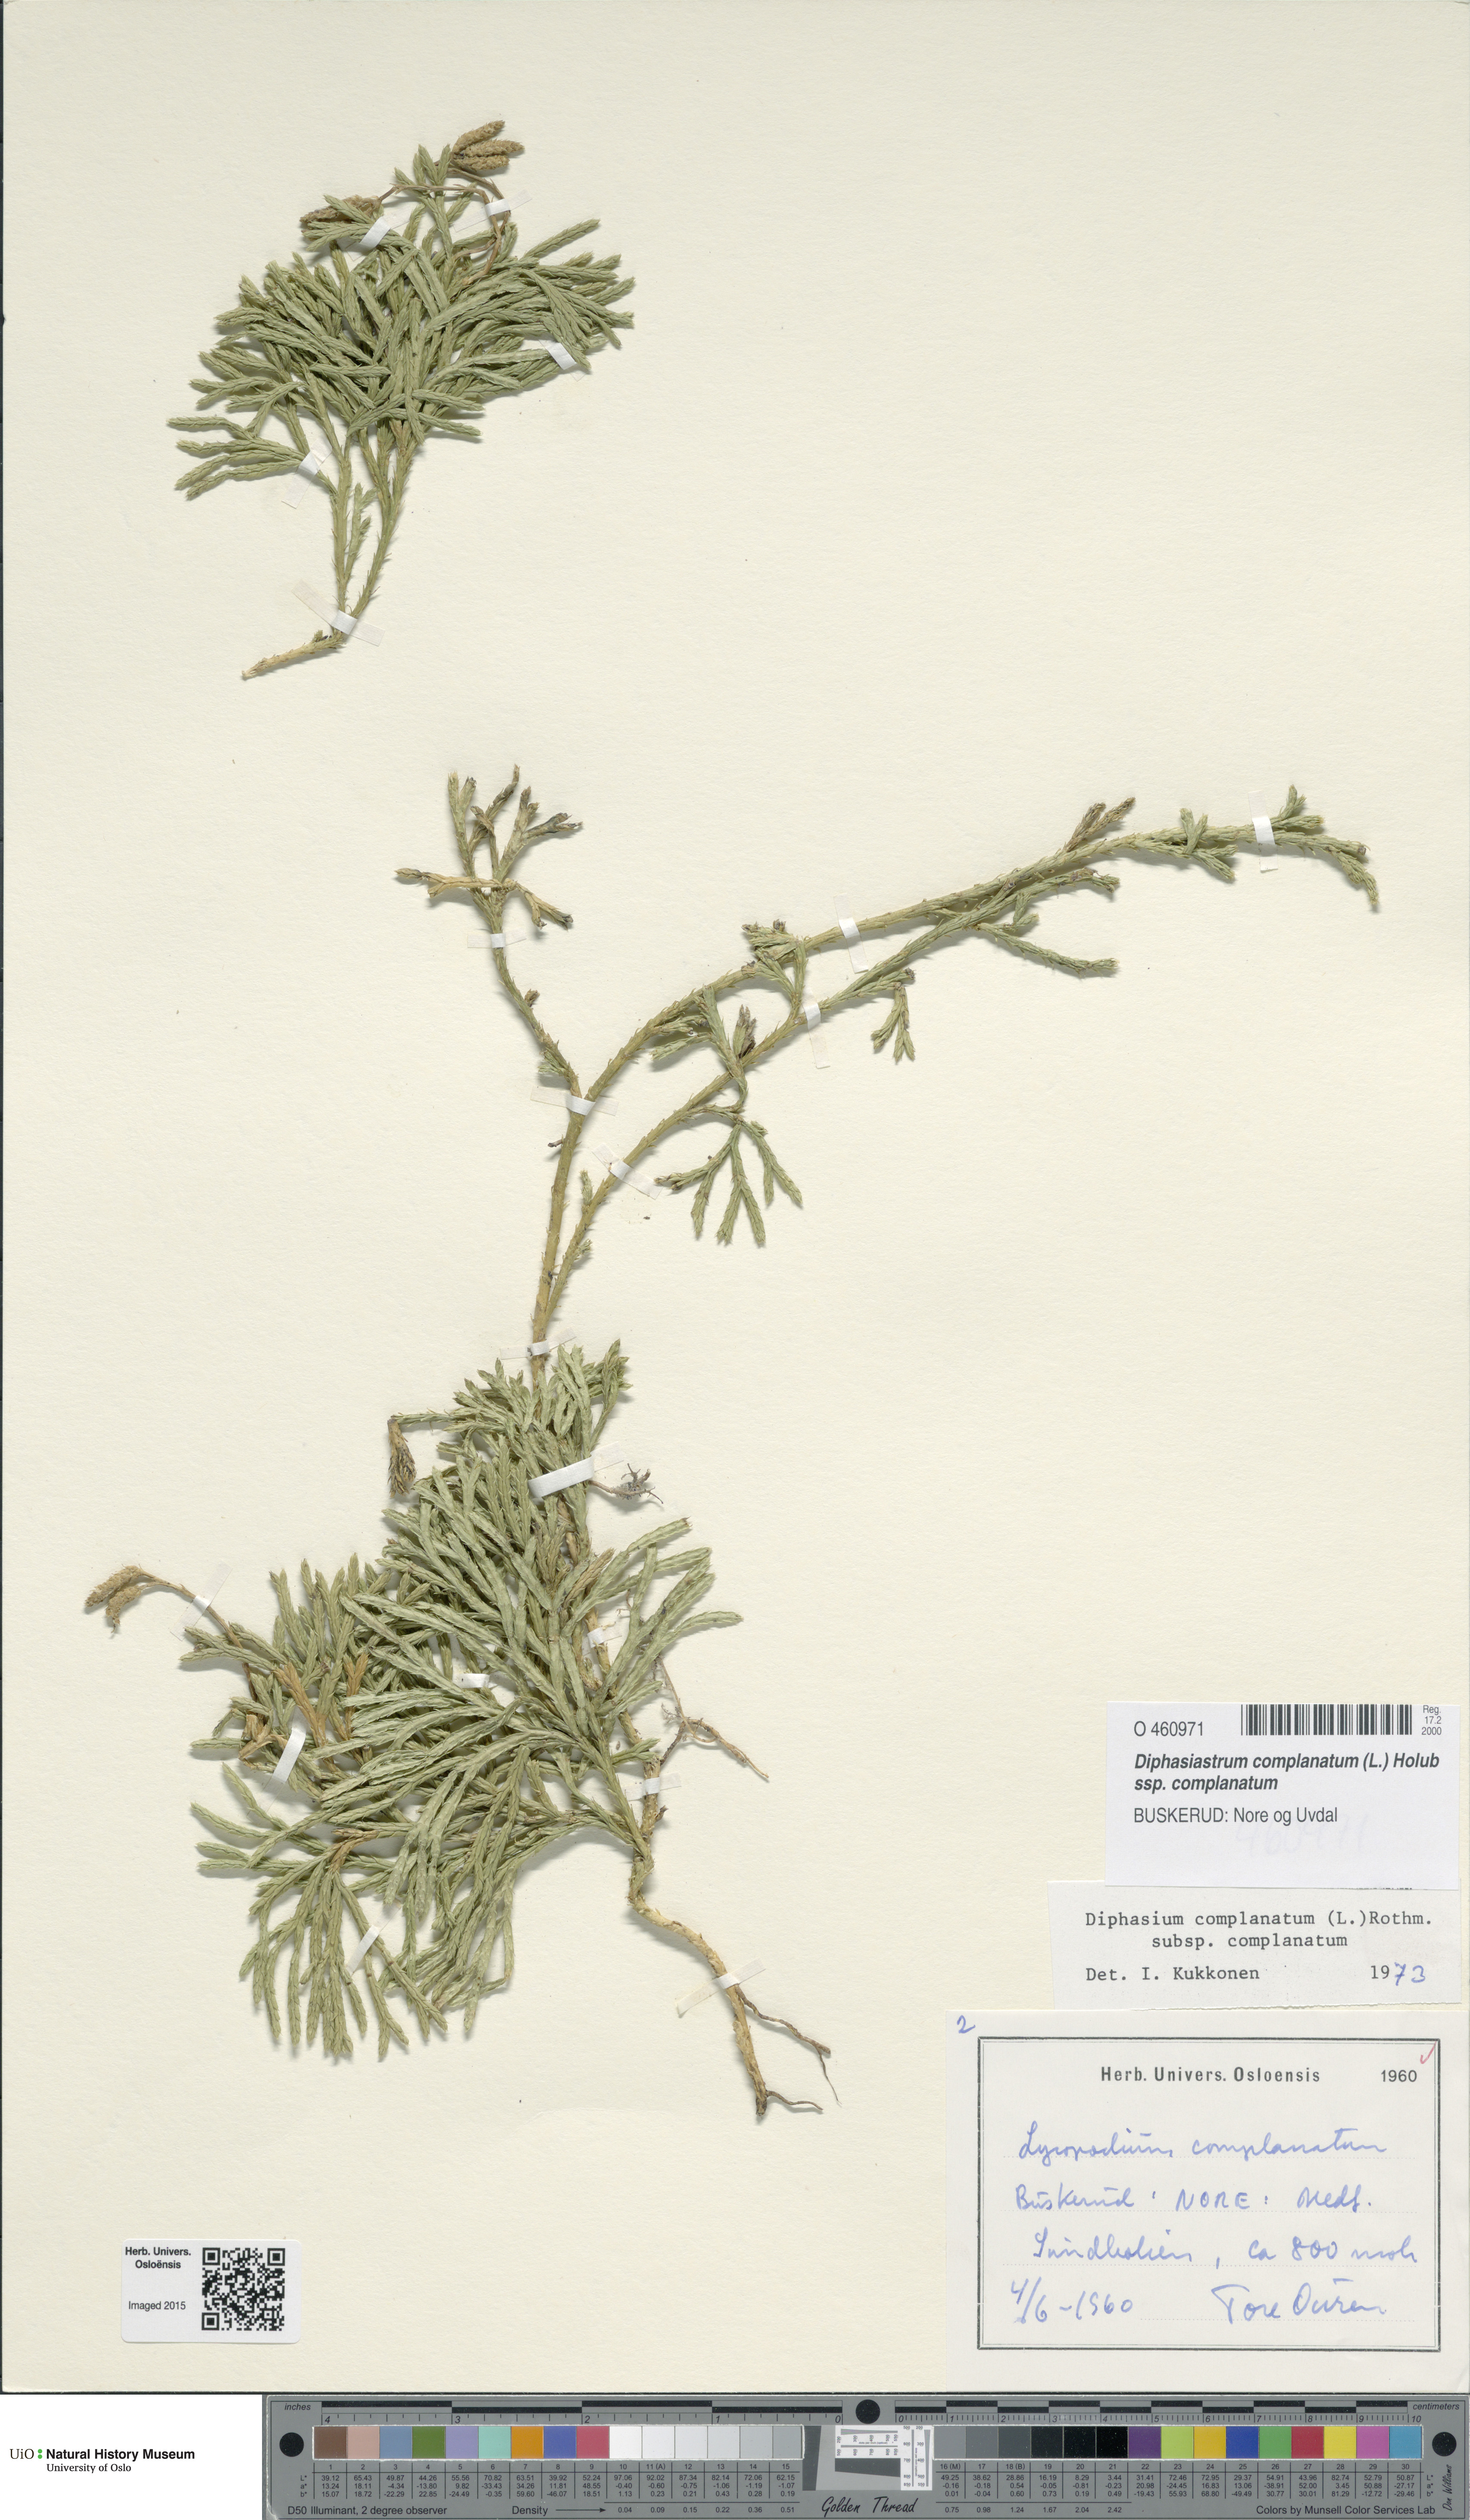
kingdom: Plantae
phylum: Tracheophyta
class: Lycopodiopsida
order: Lycopodiales
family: Lycopodiaceae
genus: Diphasiastrum
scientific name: Diphasiastrum complanatum
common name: Northern running-pine
